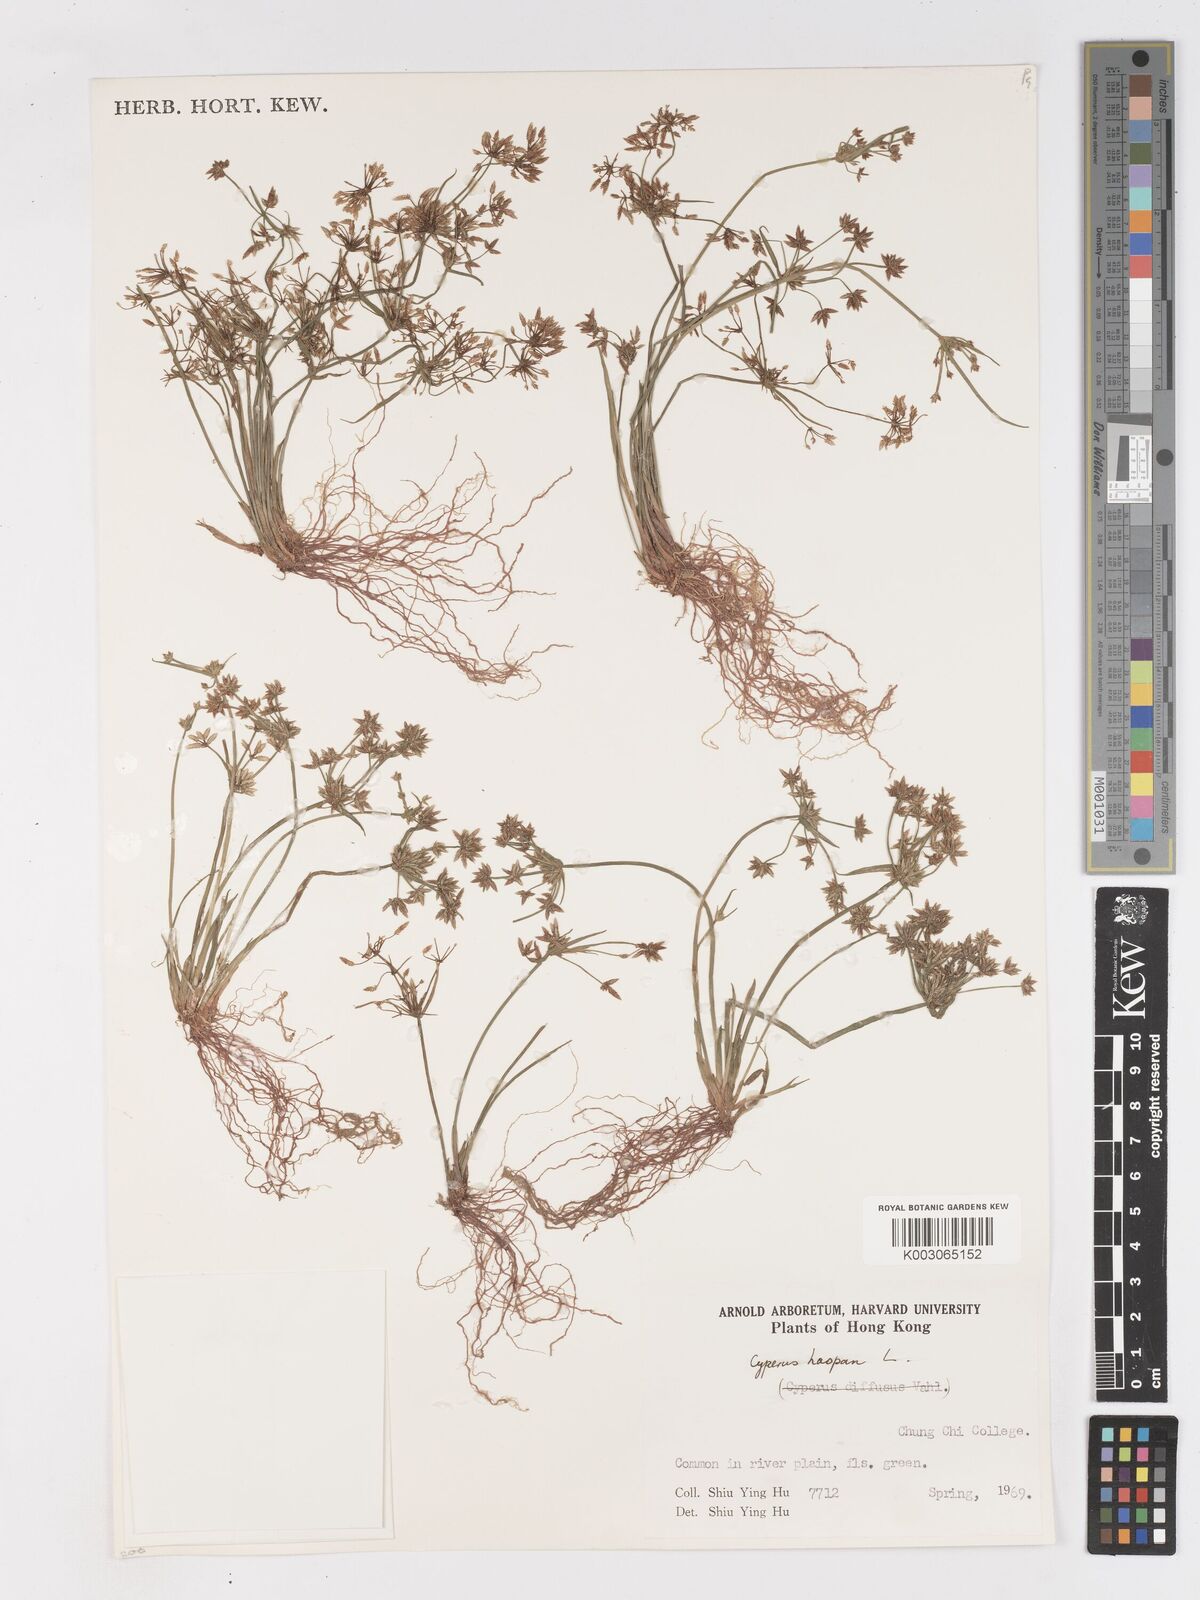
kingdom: Plantae
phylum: Tracheophyta
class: Liliopsida
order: Poales
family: Cyperaceae
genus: Cyperus
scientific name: Cyperus haspan
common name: Haspan flatsedge
